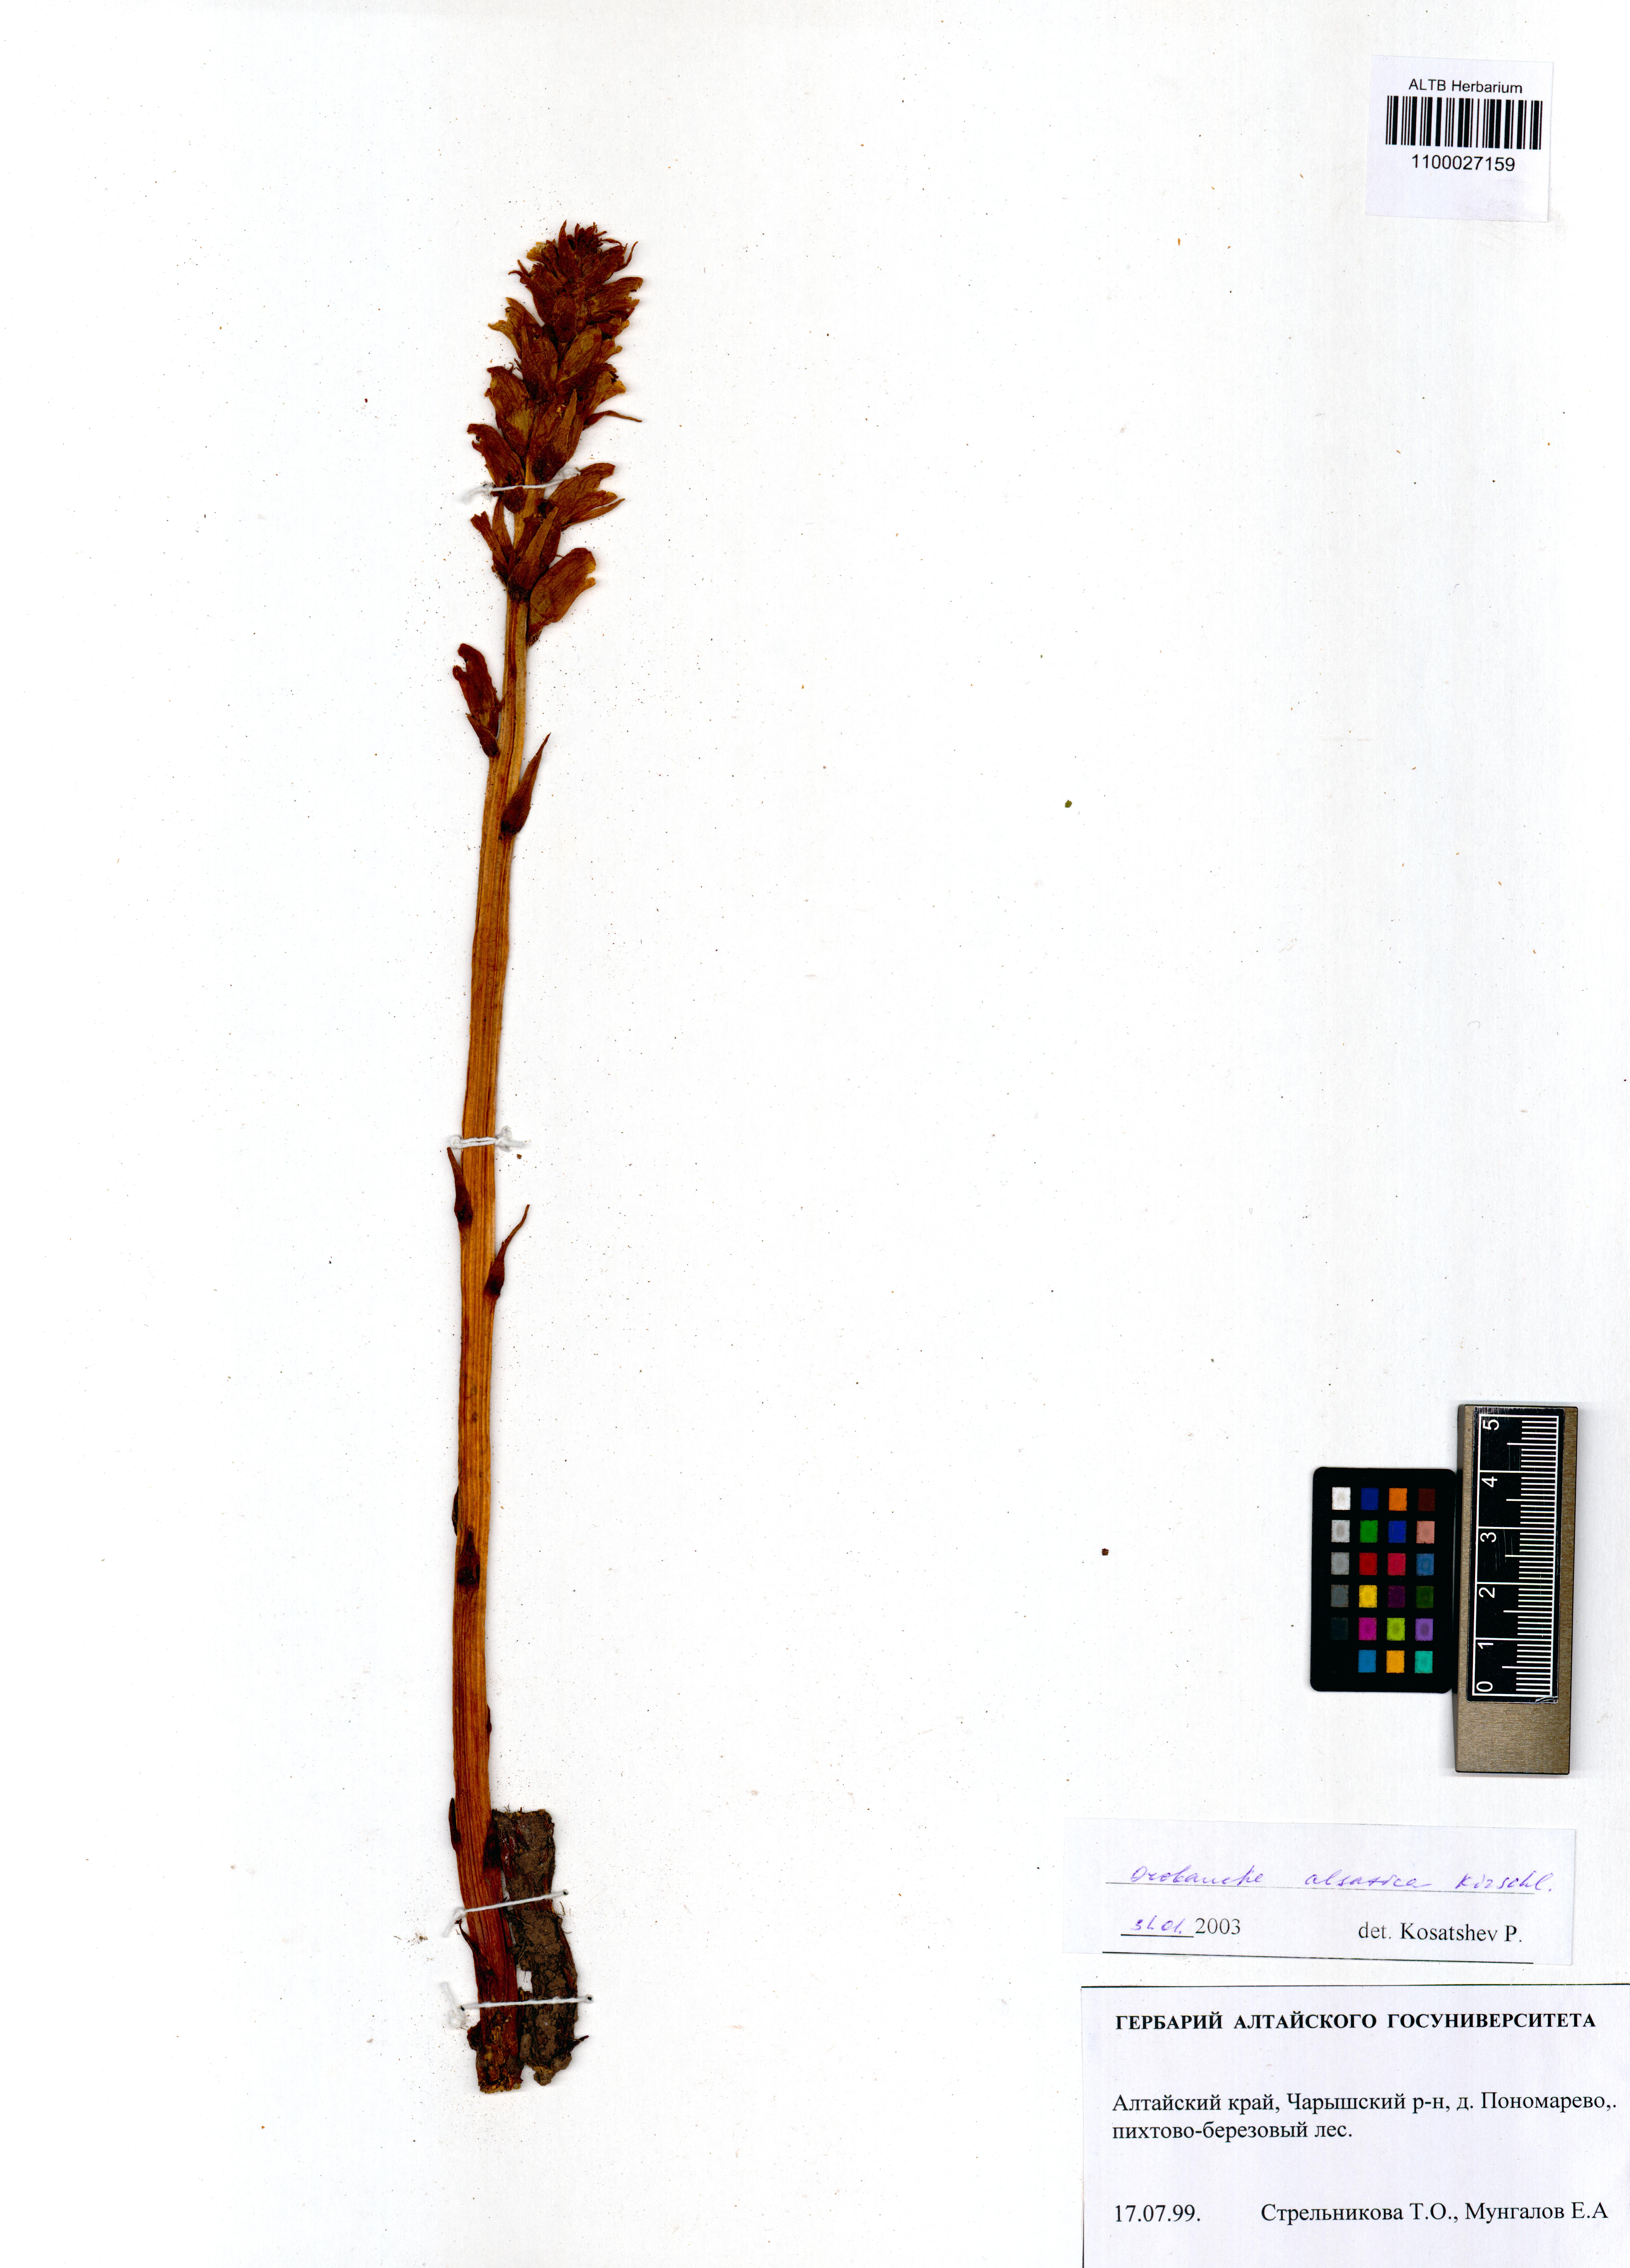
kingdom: Plantae
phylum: Tracheophyta
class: Magnoliopsida
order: Lamiales
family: Orobanchaceae
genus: Orobanche
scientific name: Orobanche alsatica
